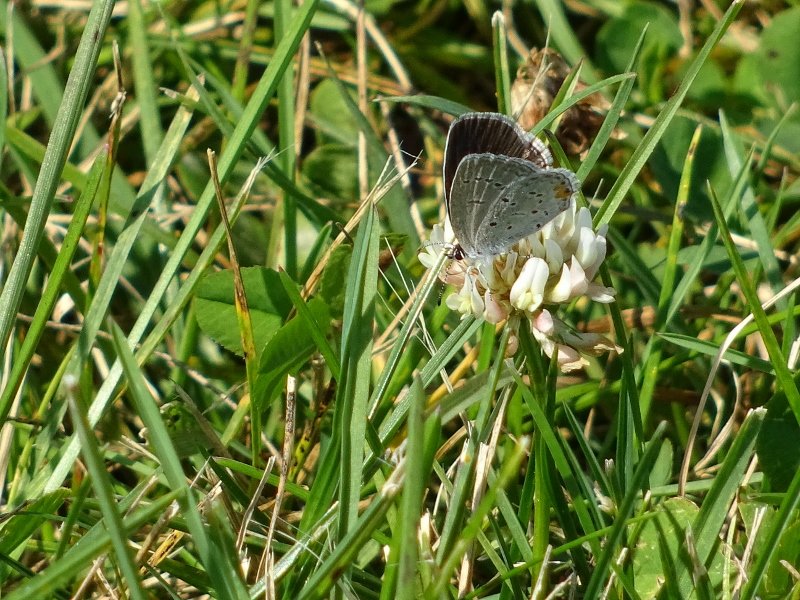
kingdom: Animalia
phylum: Arthropoda
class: Insecta
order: Lepidoptera
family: Lycaenidae
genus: Elkalyce
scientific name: Elkalyce comyntas
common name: Eastern Tailed-Blue
